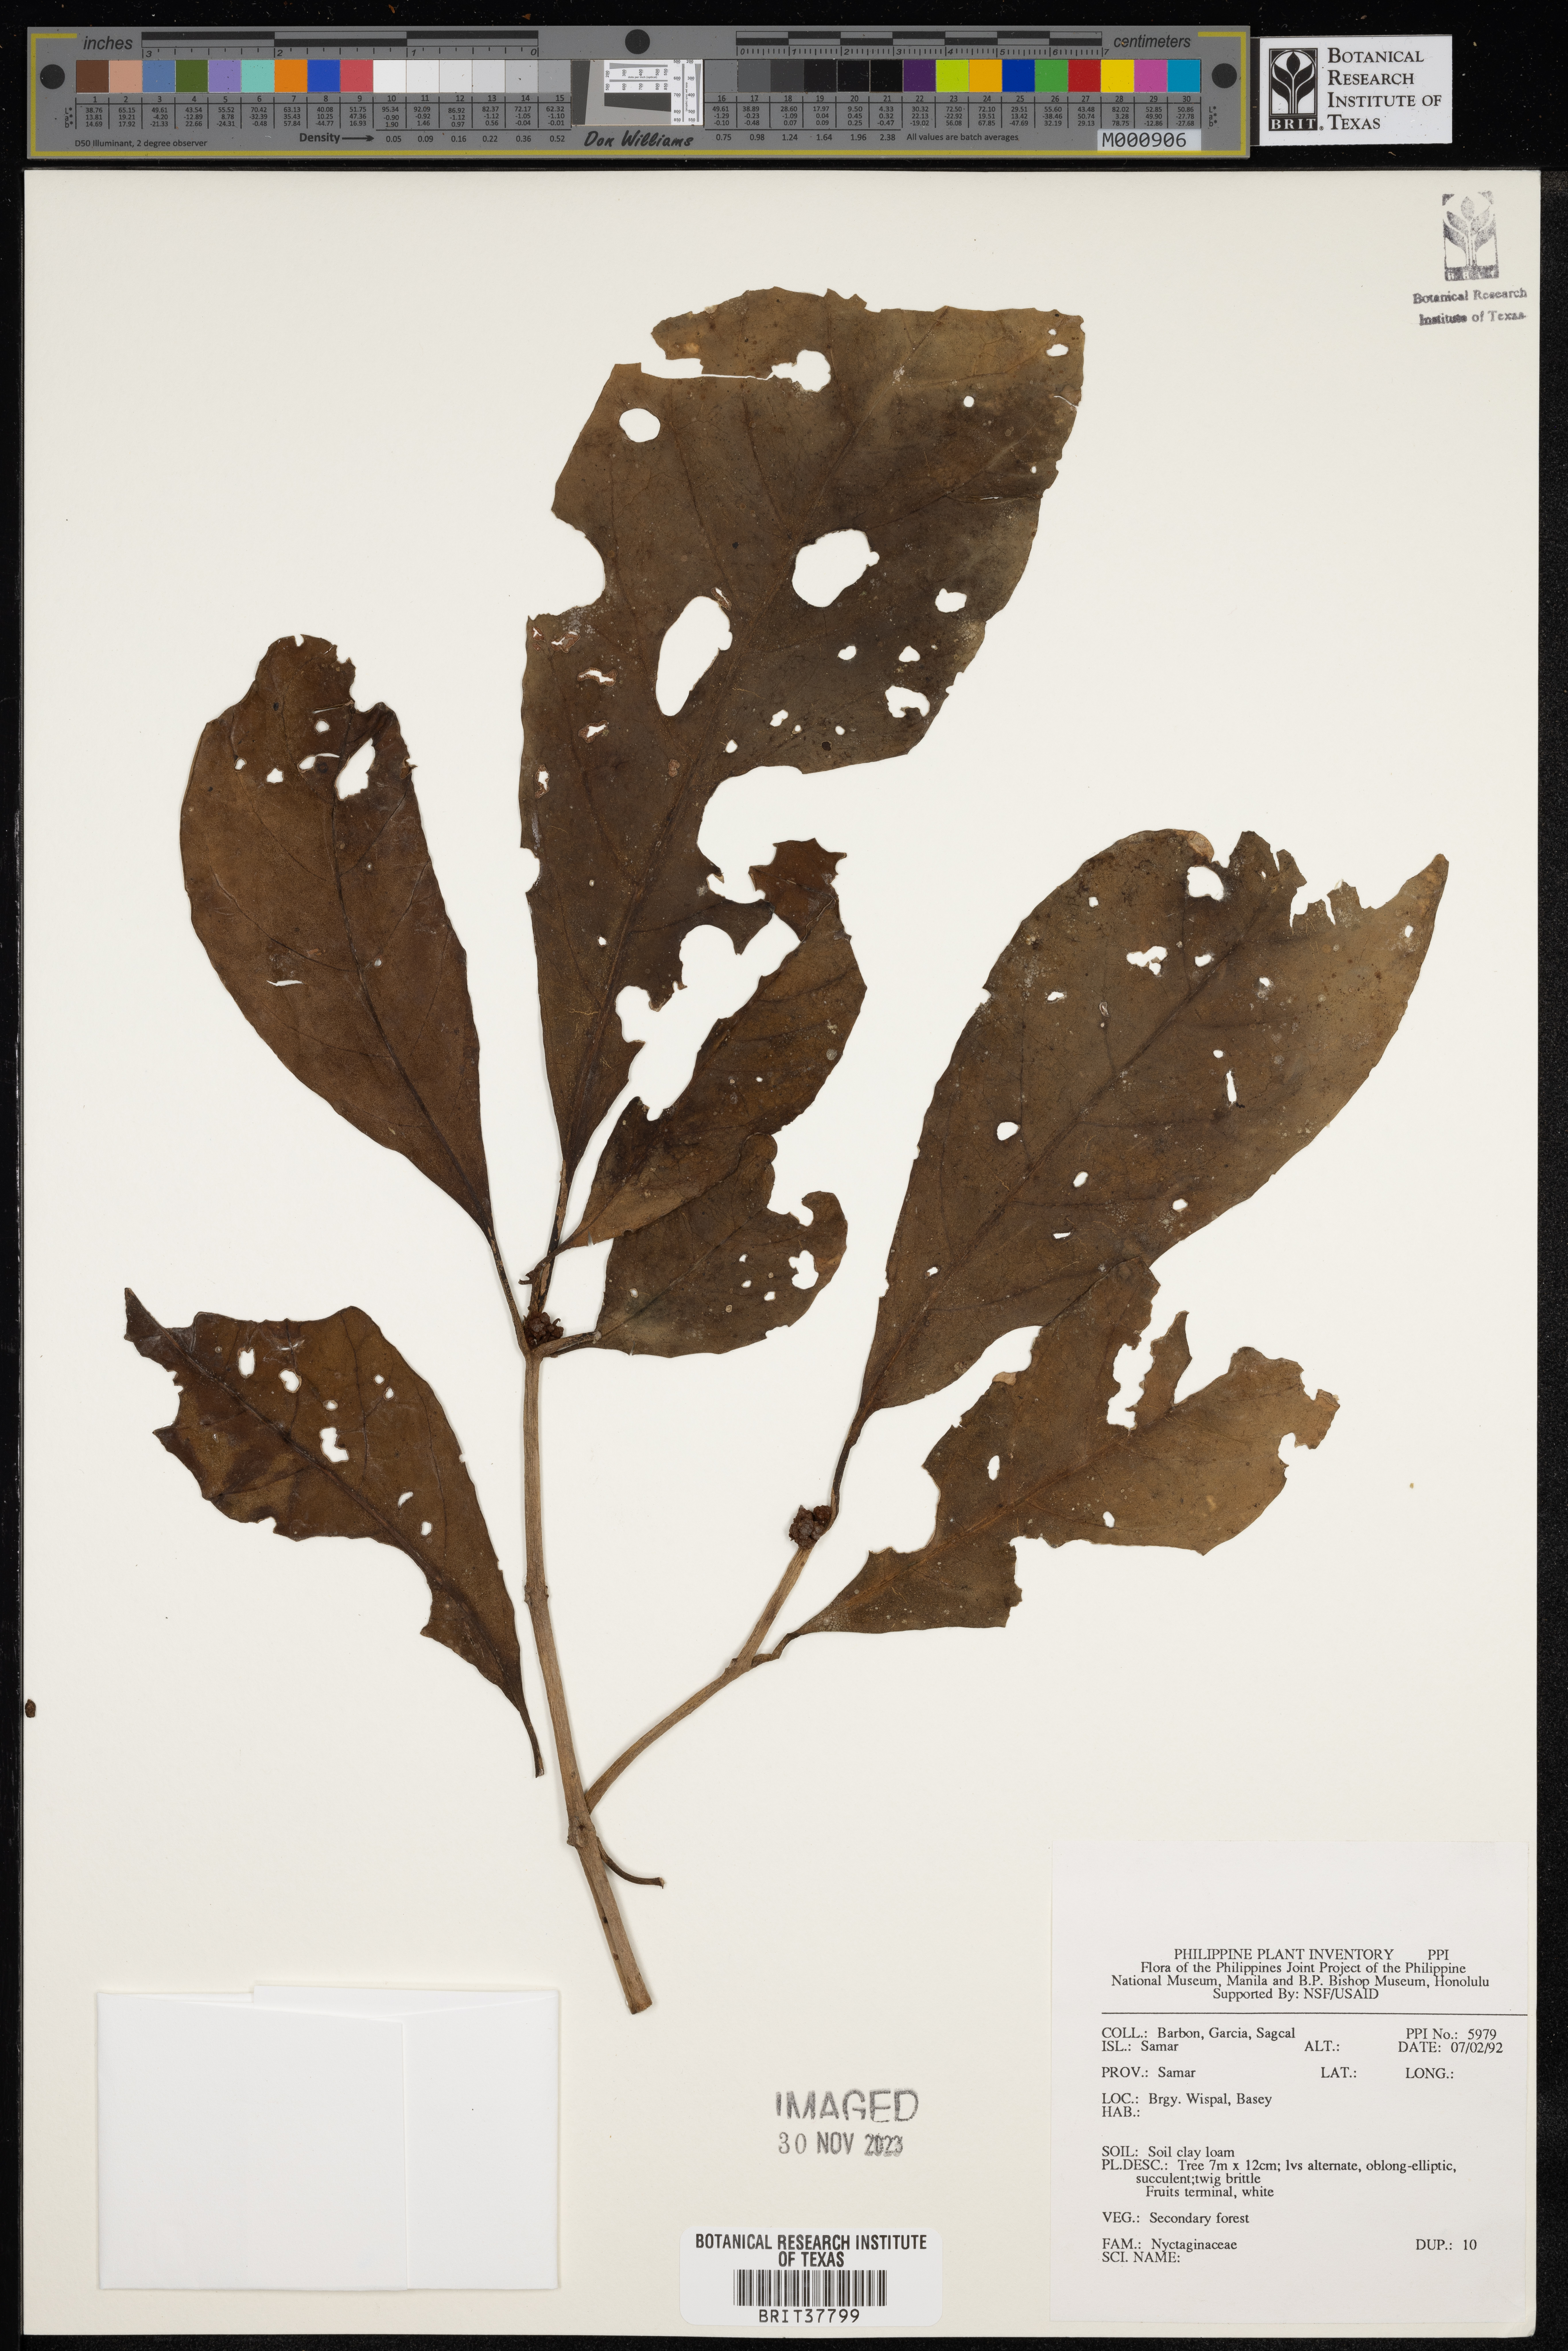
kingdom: Plantae
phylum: Tracheophyta
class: Magnoliopsida
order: Caryophyllales
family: Nyctaginaceae
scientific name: Nyctaginaceae
